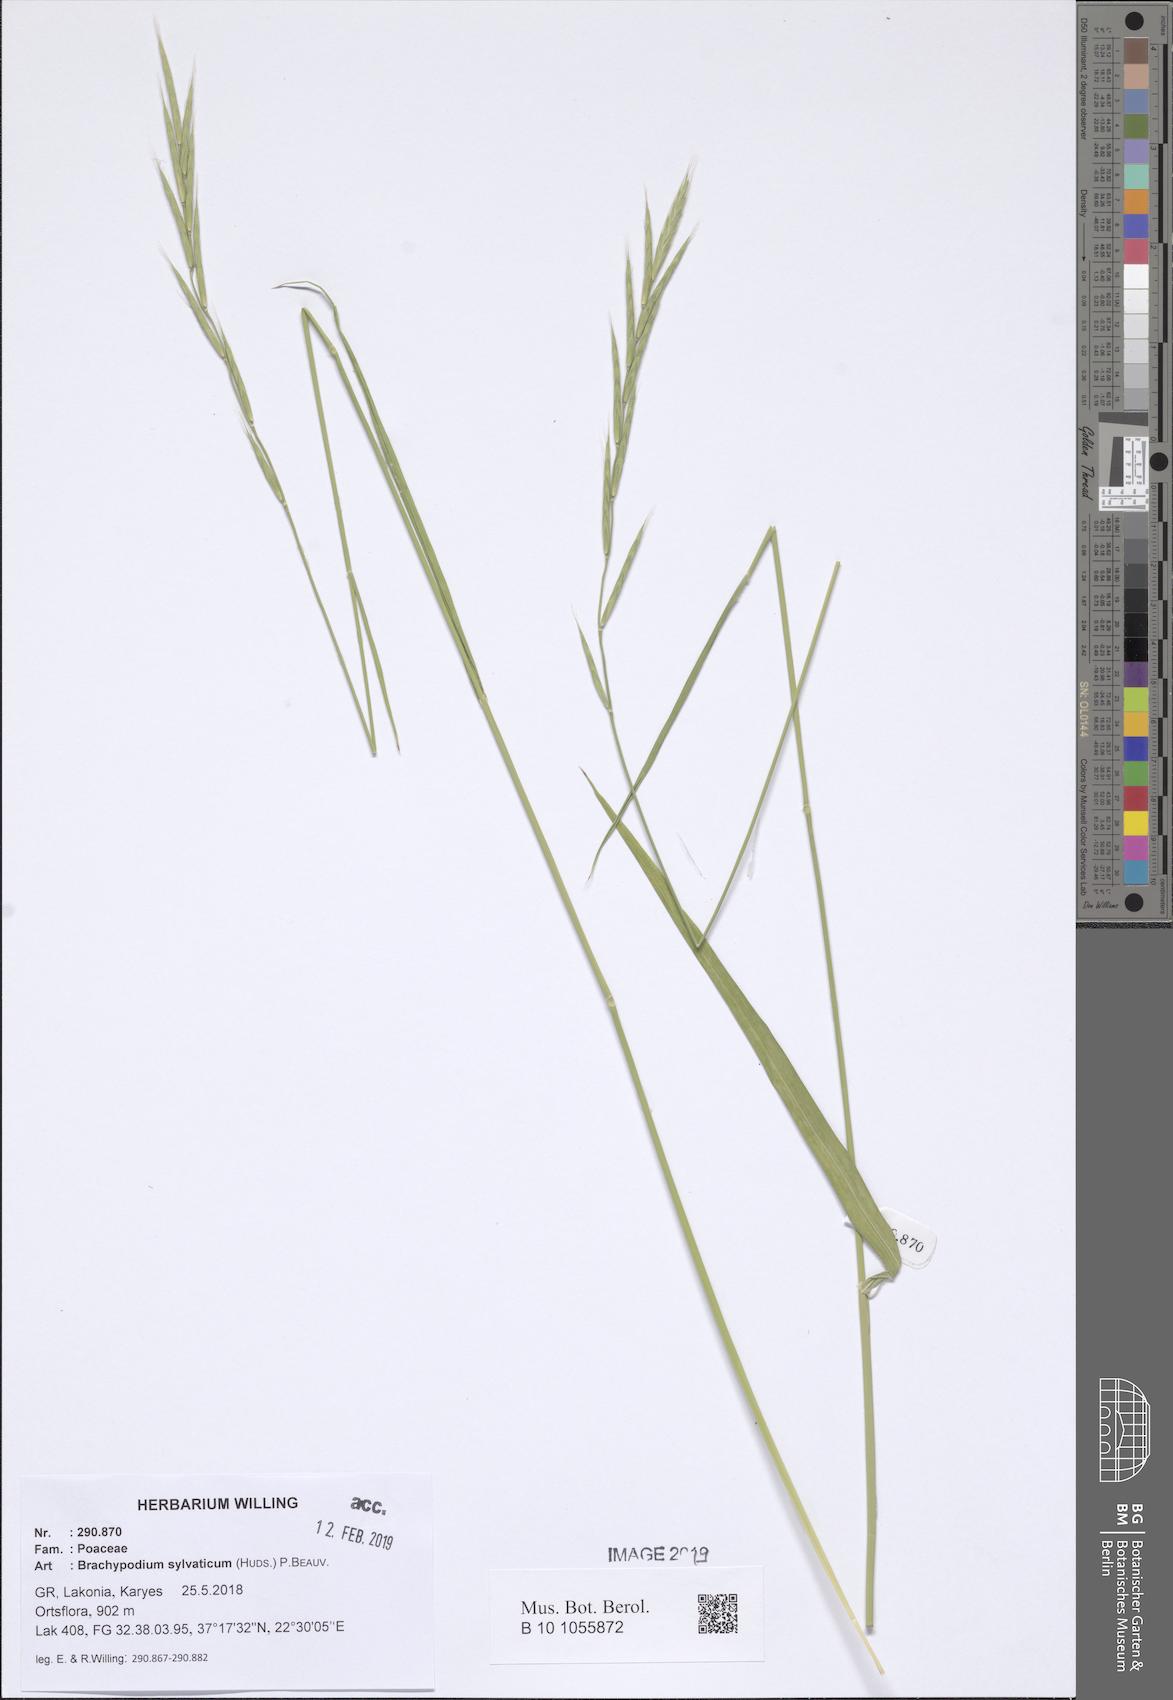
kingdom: Plantae
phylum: Tracheophyta
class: Liliopsida
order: Poales
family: Poaceae
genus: Brachypodium
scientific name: Brachypodium sylvaticum
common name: False-brome
